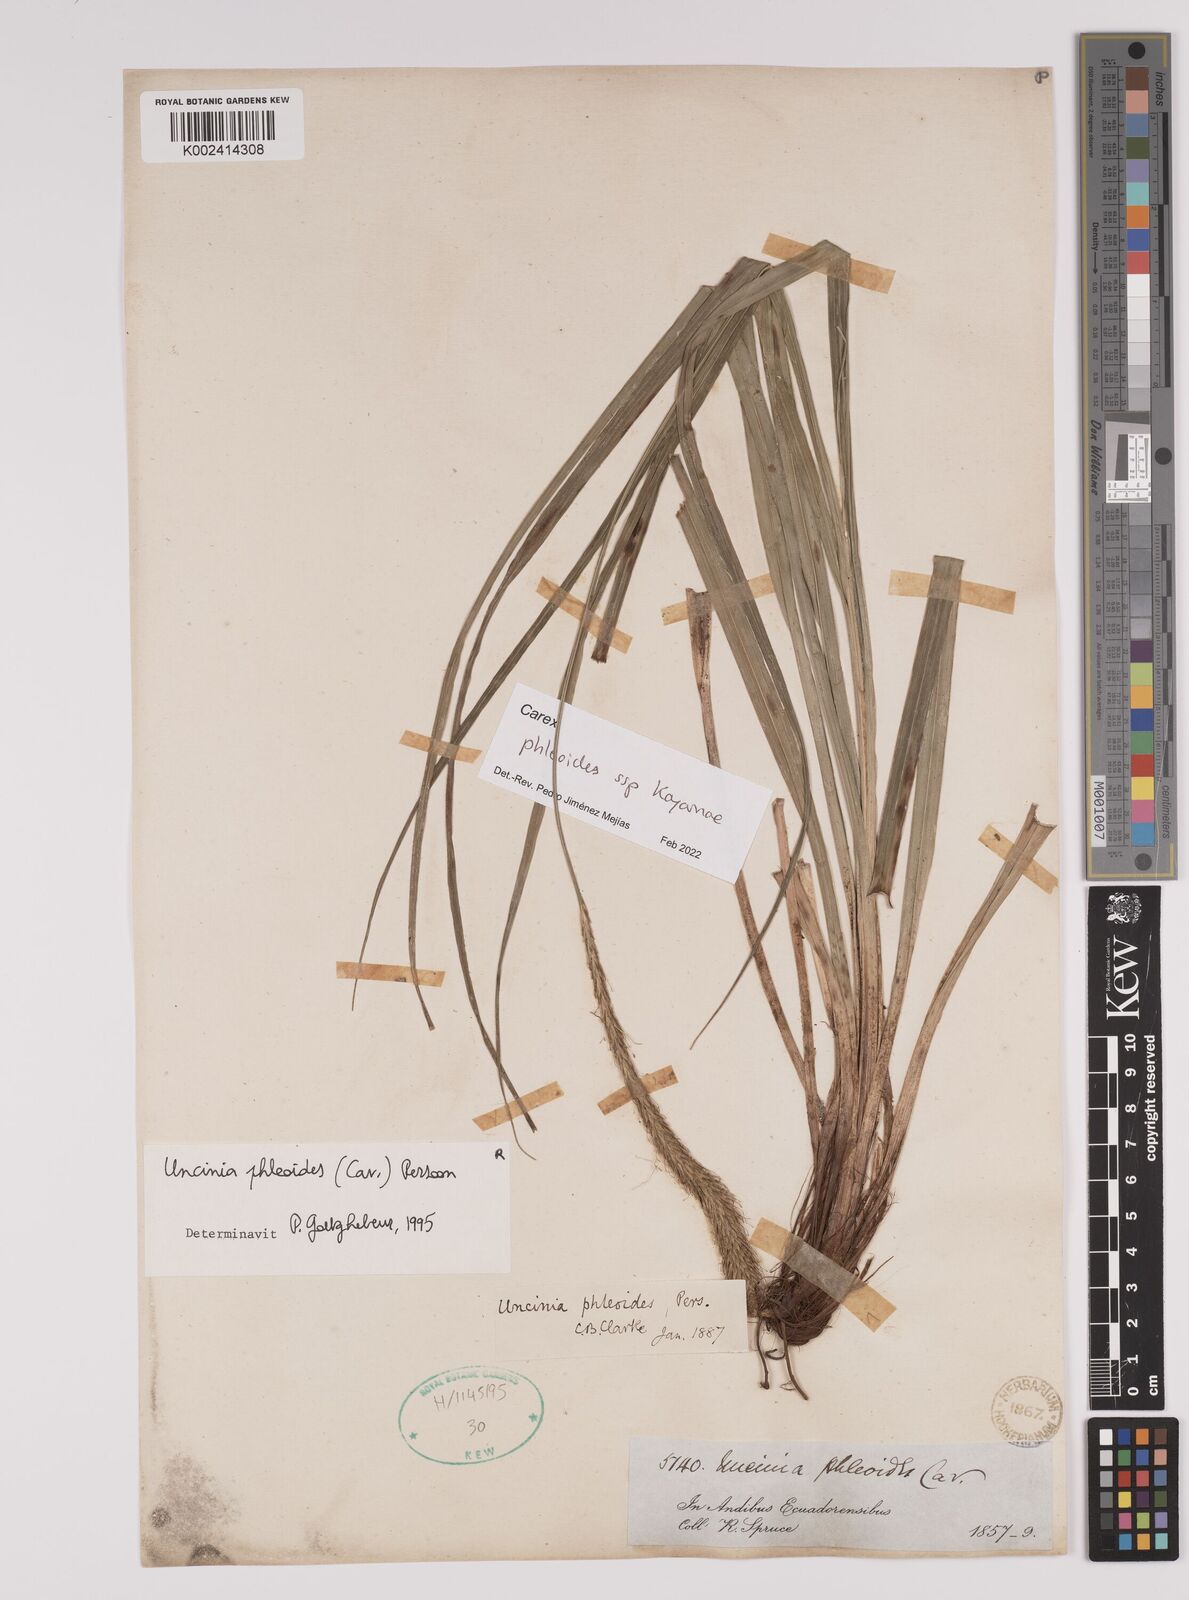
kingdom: Plantae
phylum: Tracheophyta
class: Liliopsida
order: Poales
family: Cyperaceae
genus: Carex
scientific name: Carex phleoides
